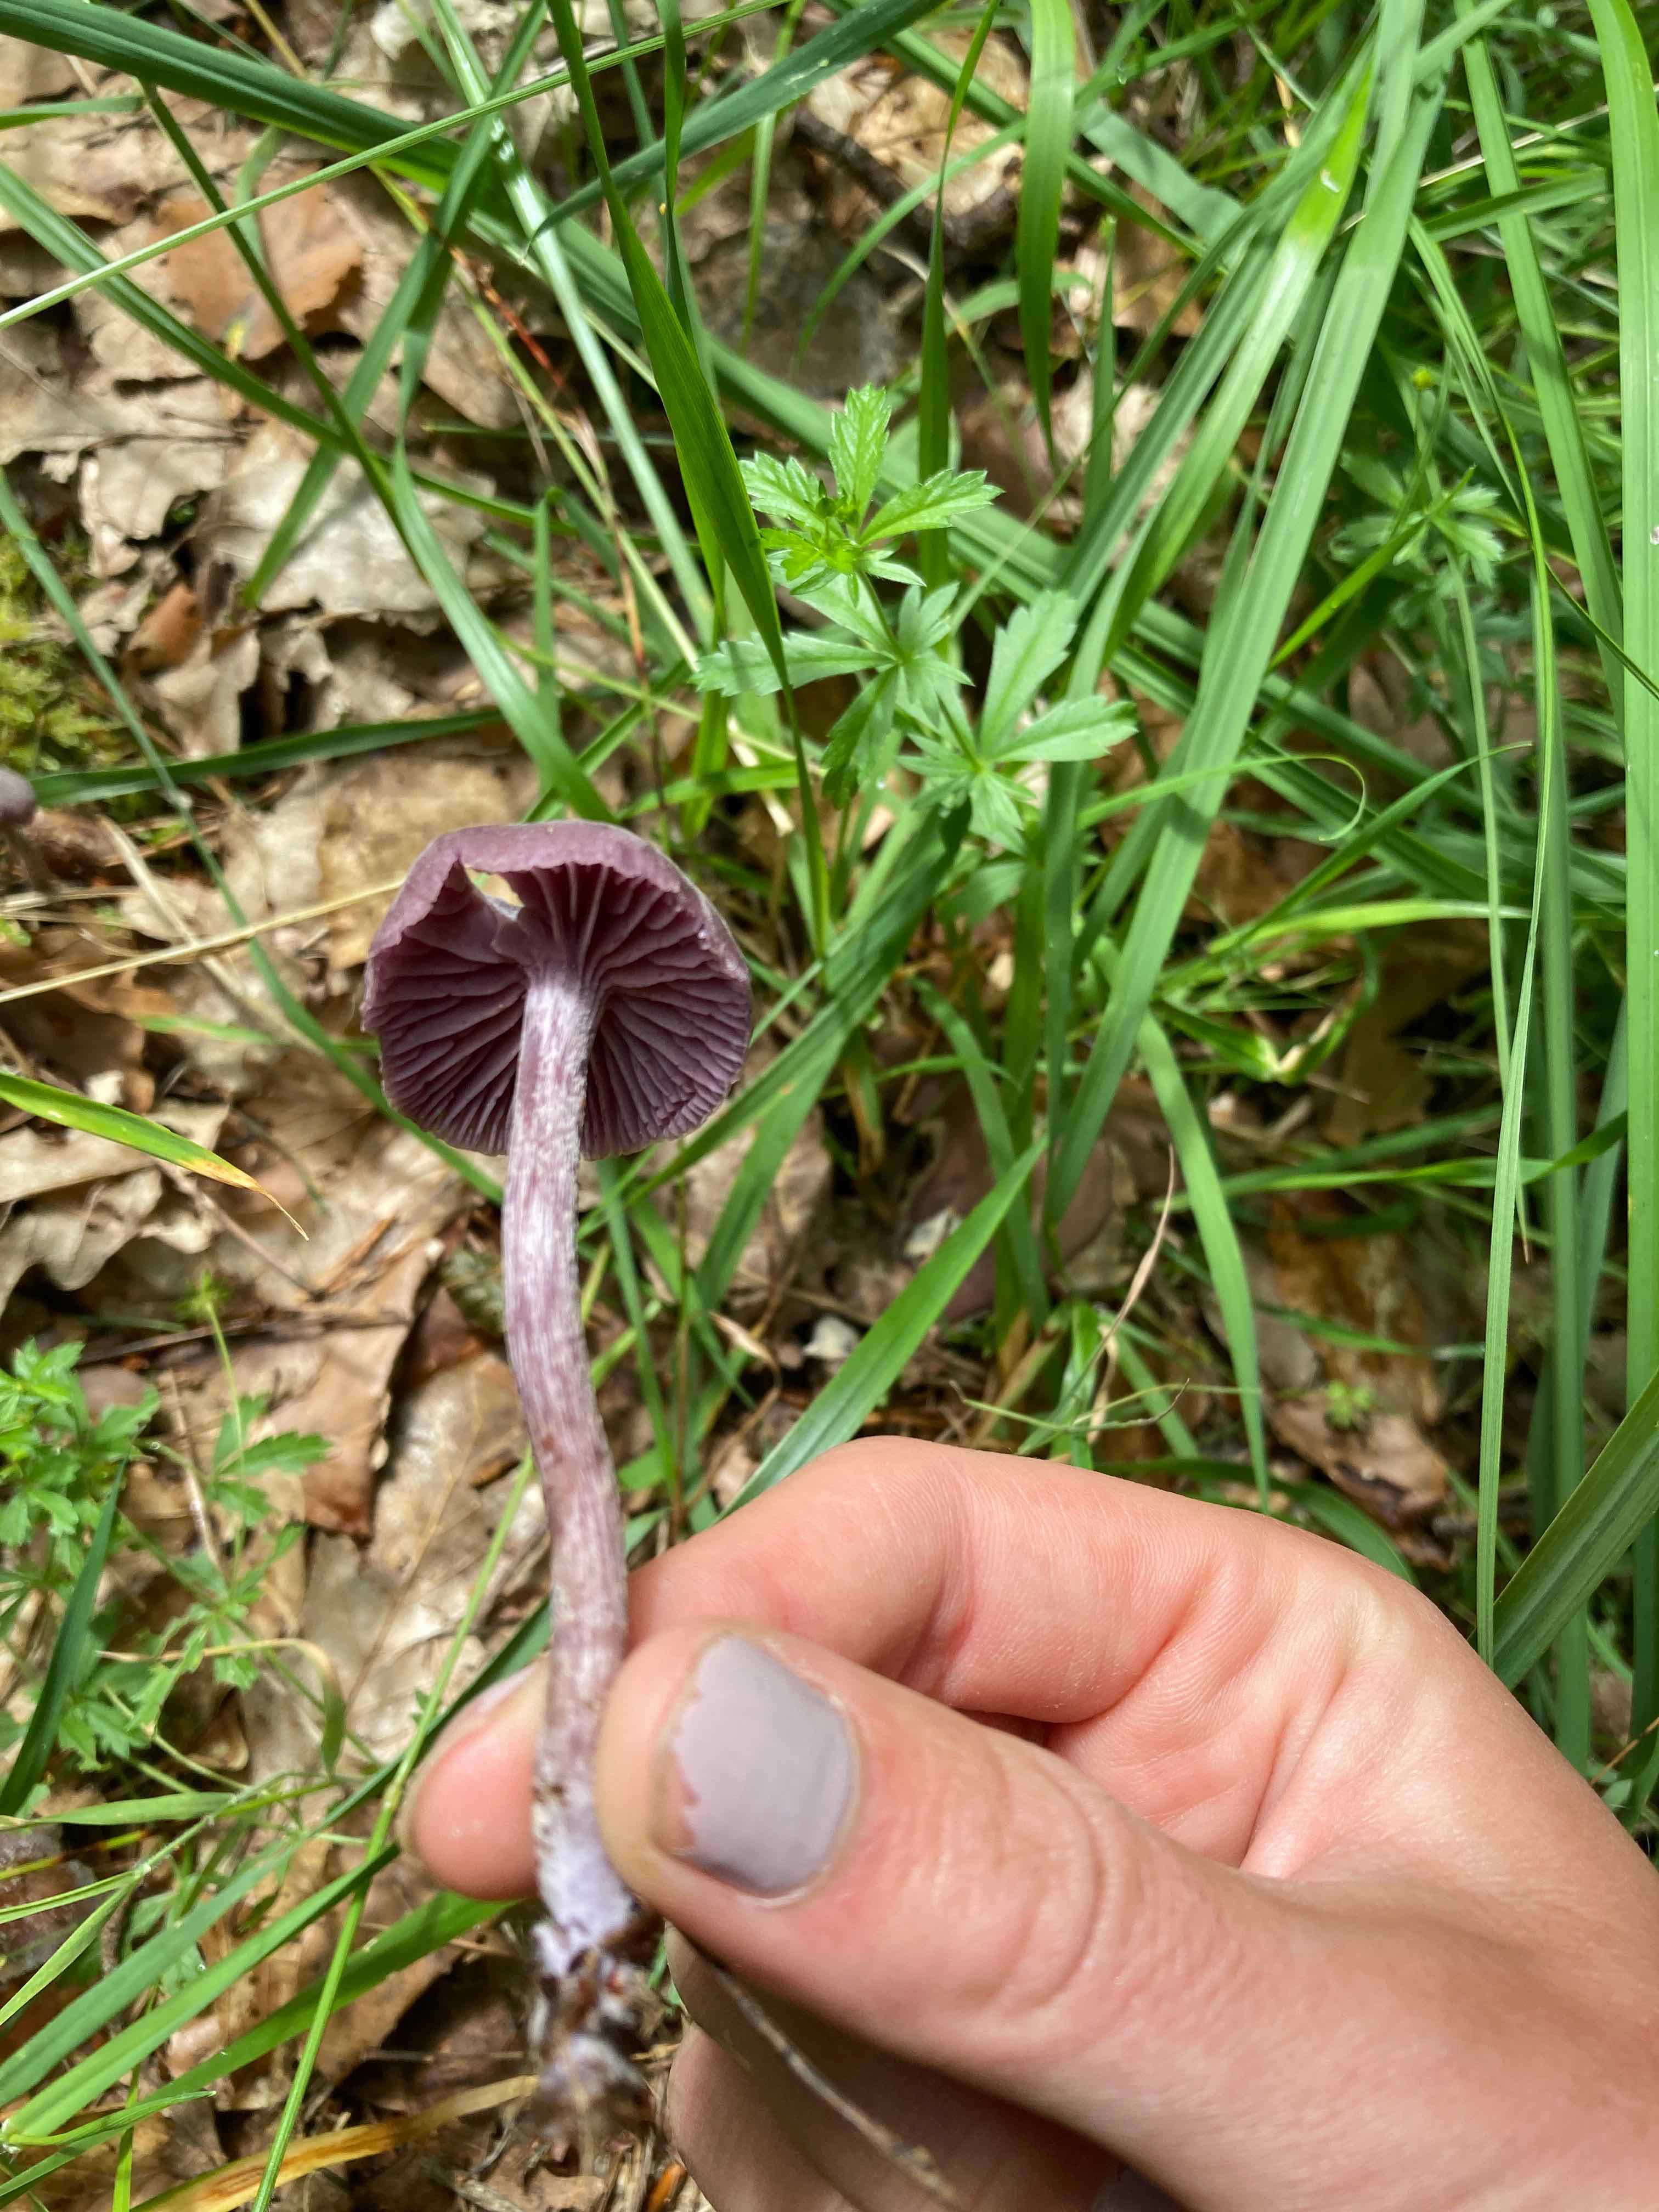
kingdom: Fungi
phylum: Basidiomycota
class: Agaricomycetes
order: Agaricales
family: Hydnangiaceae
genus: Laccaria
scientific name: Laccaria amethystina
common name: violet ametysthat
